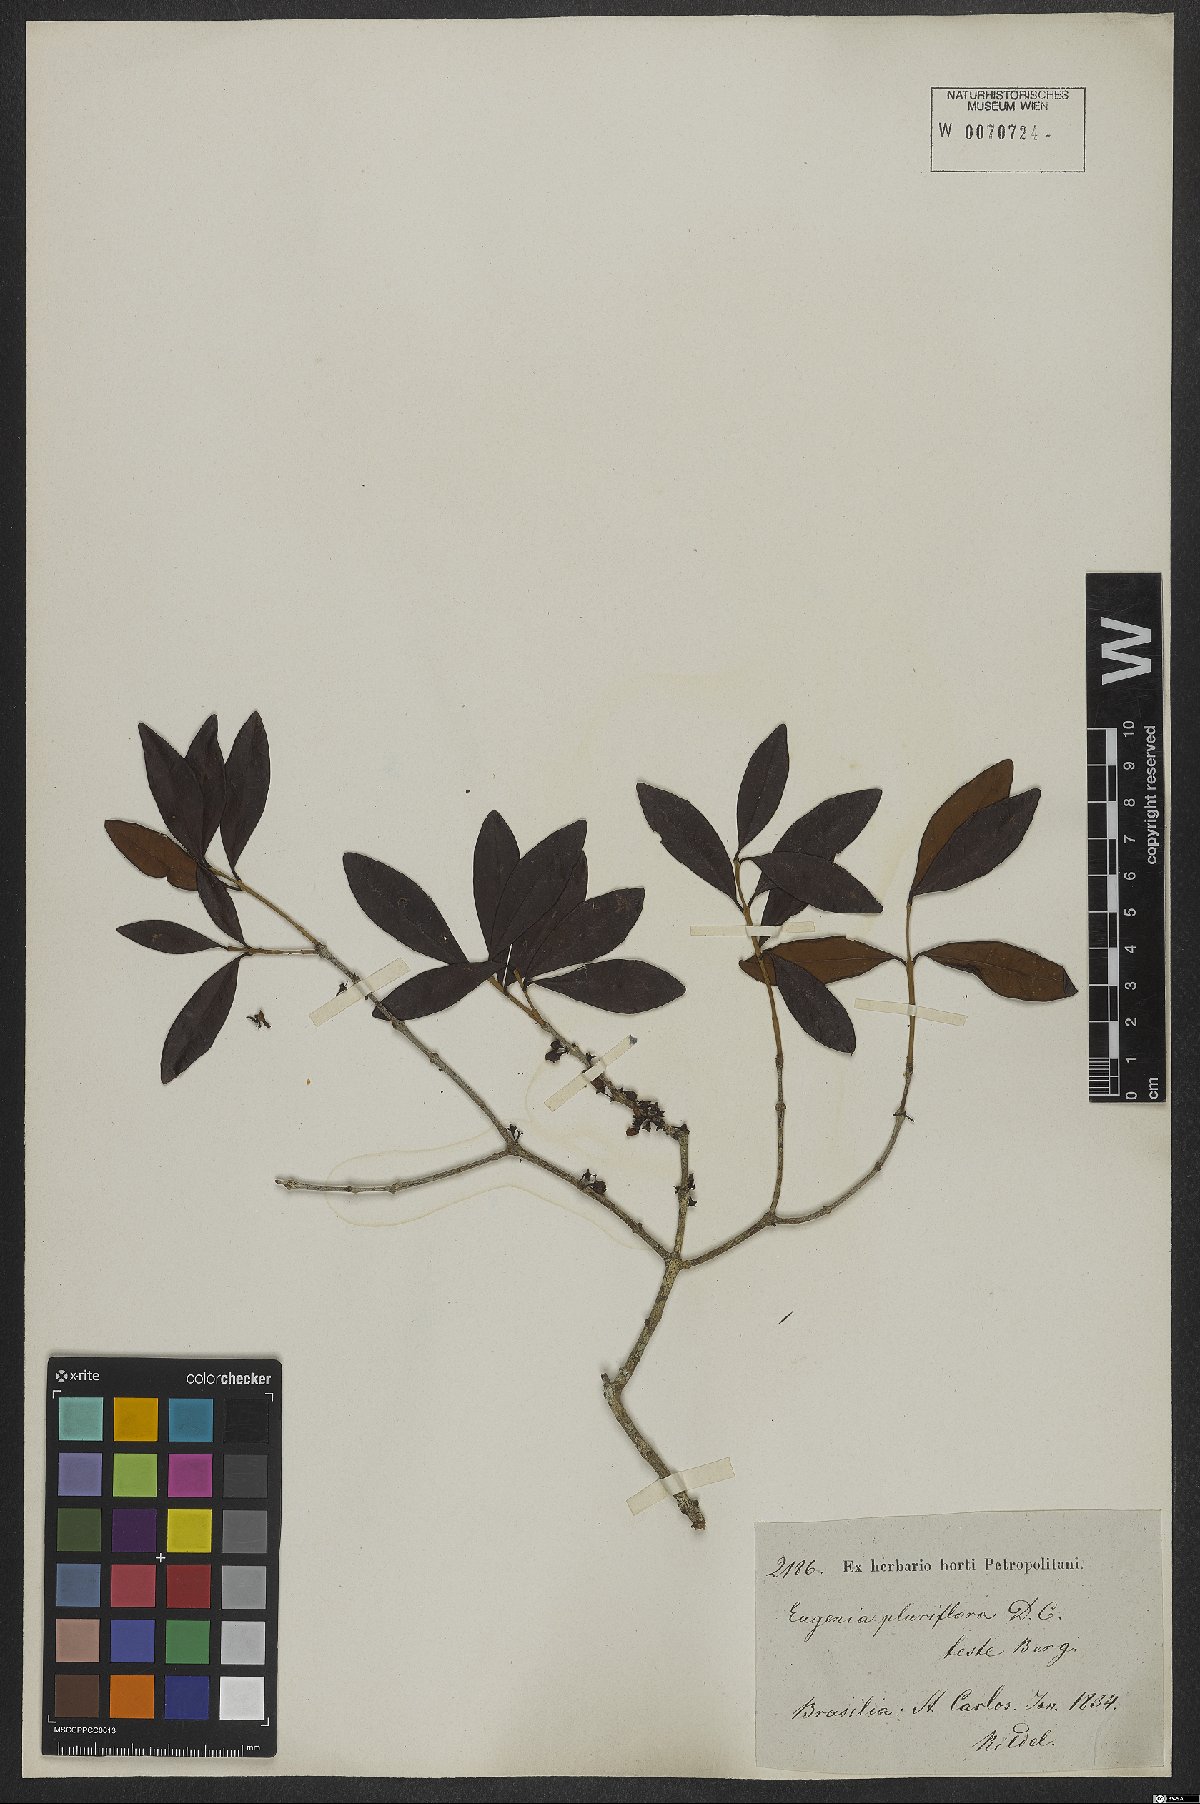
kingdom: Plantae
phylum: Tracheophyta
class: Magnoliopsida
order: Myrtales
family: Myrtaceae
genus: Eugenia
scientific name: Eugenia pluriflora
